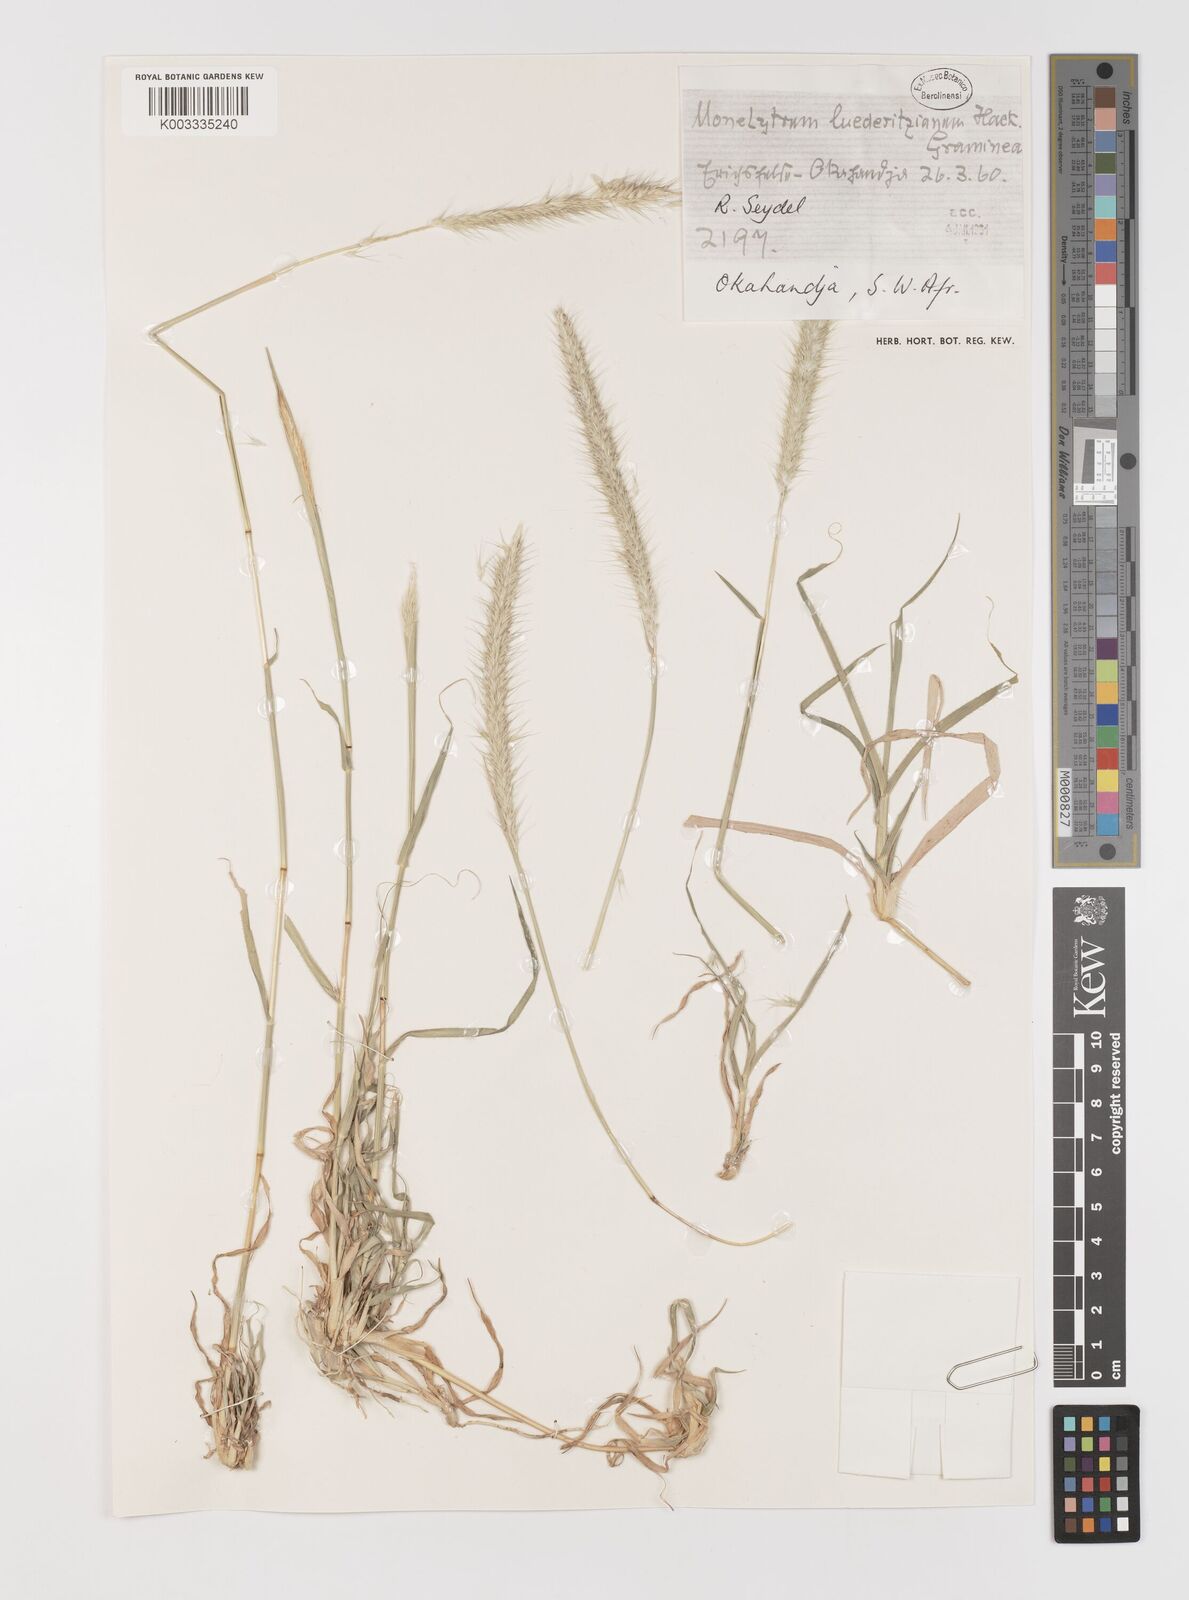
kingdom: Plantae
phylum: Tracheophyta
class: Liliopsida
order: Poales
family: Poaceae
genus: Monelytrum
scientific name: Monelytrum luederitzianum
